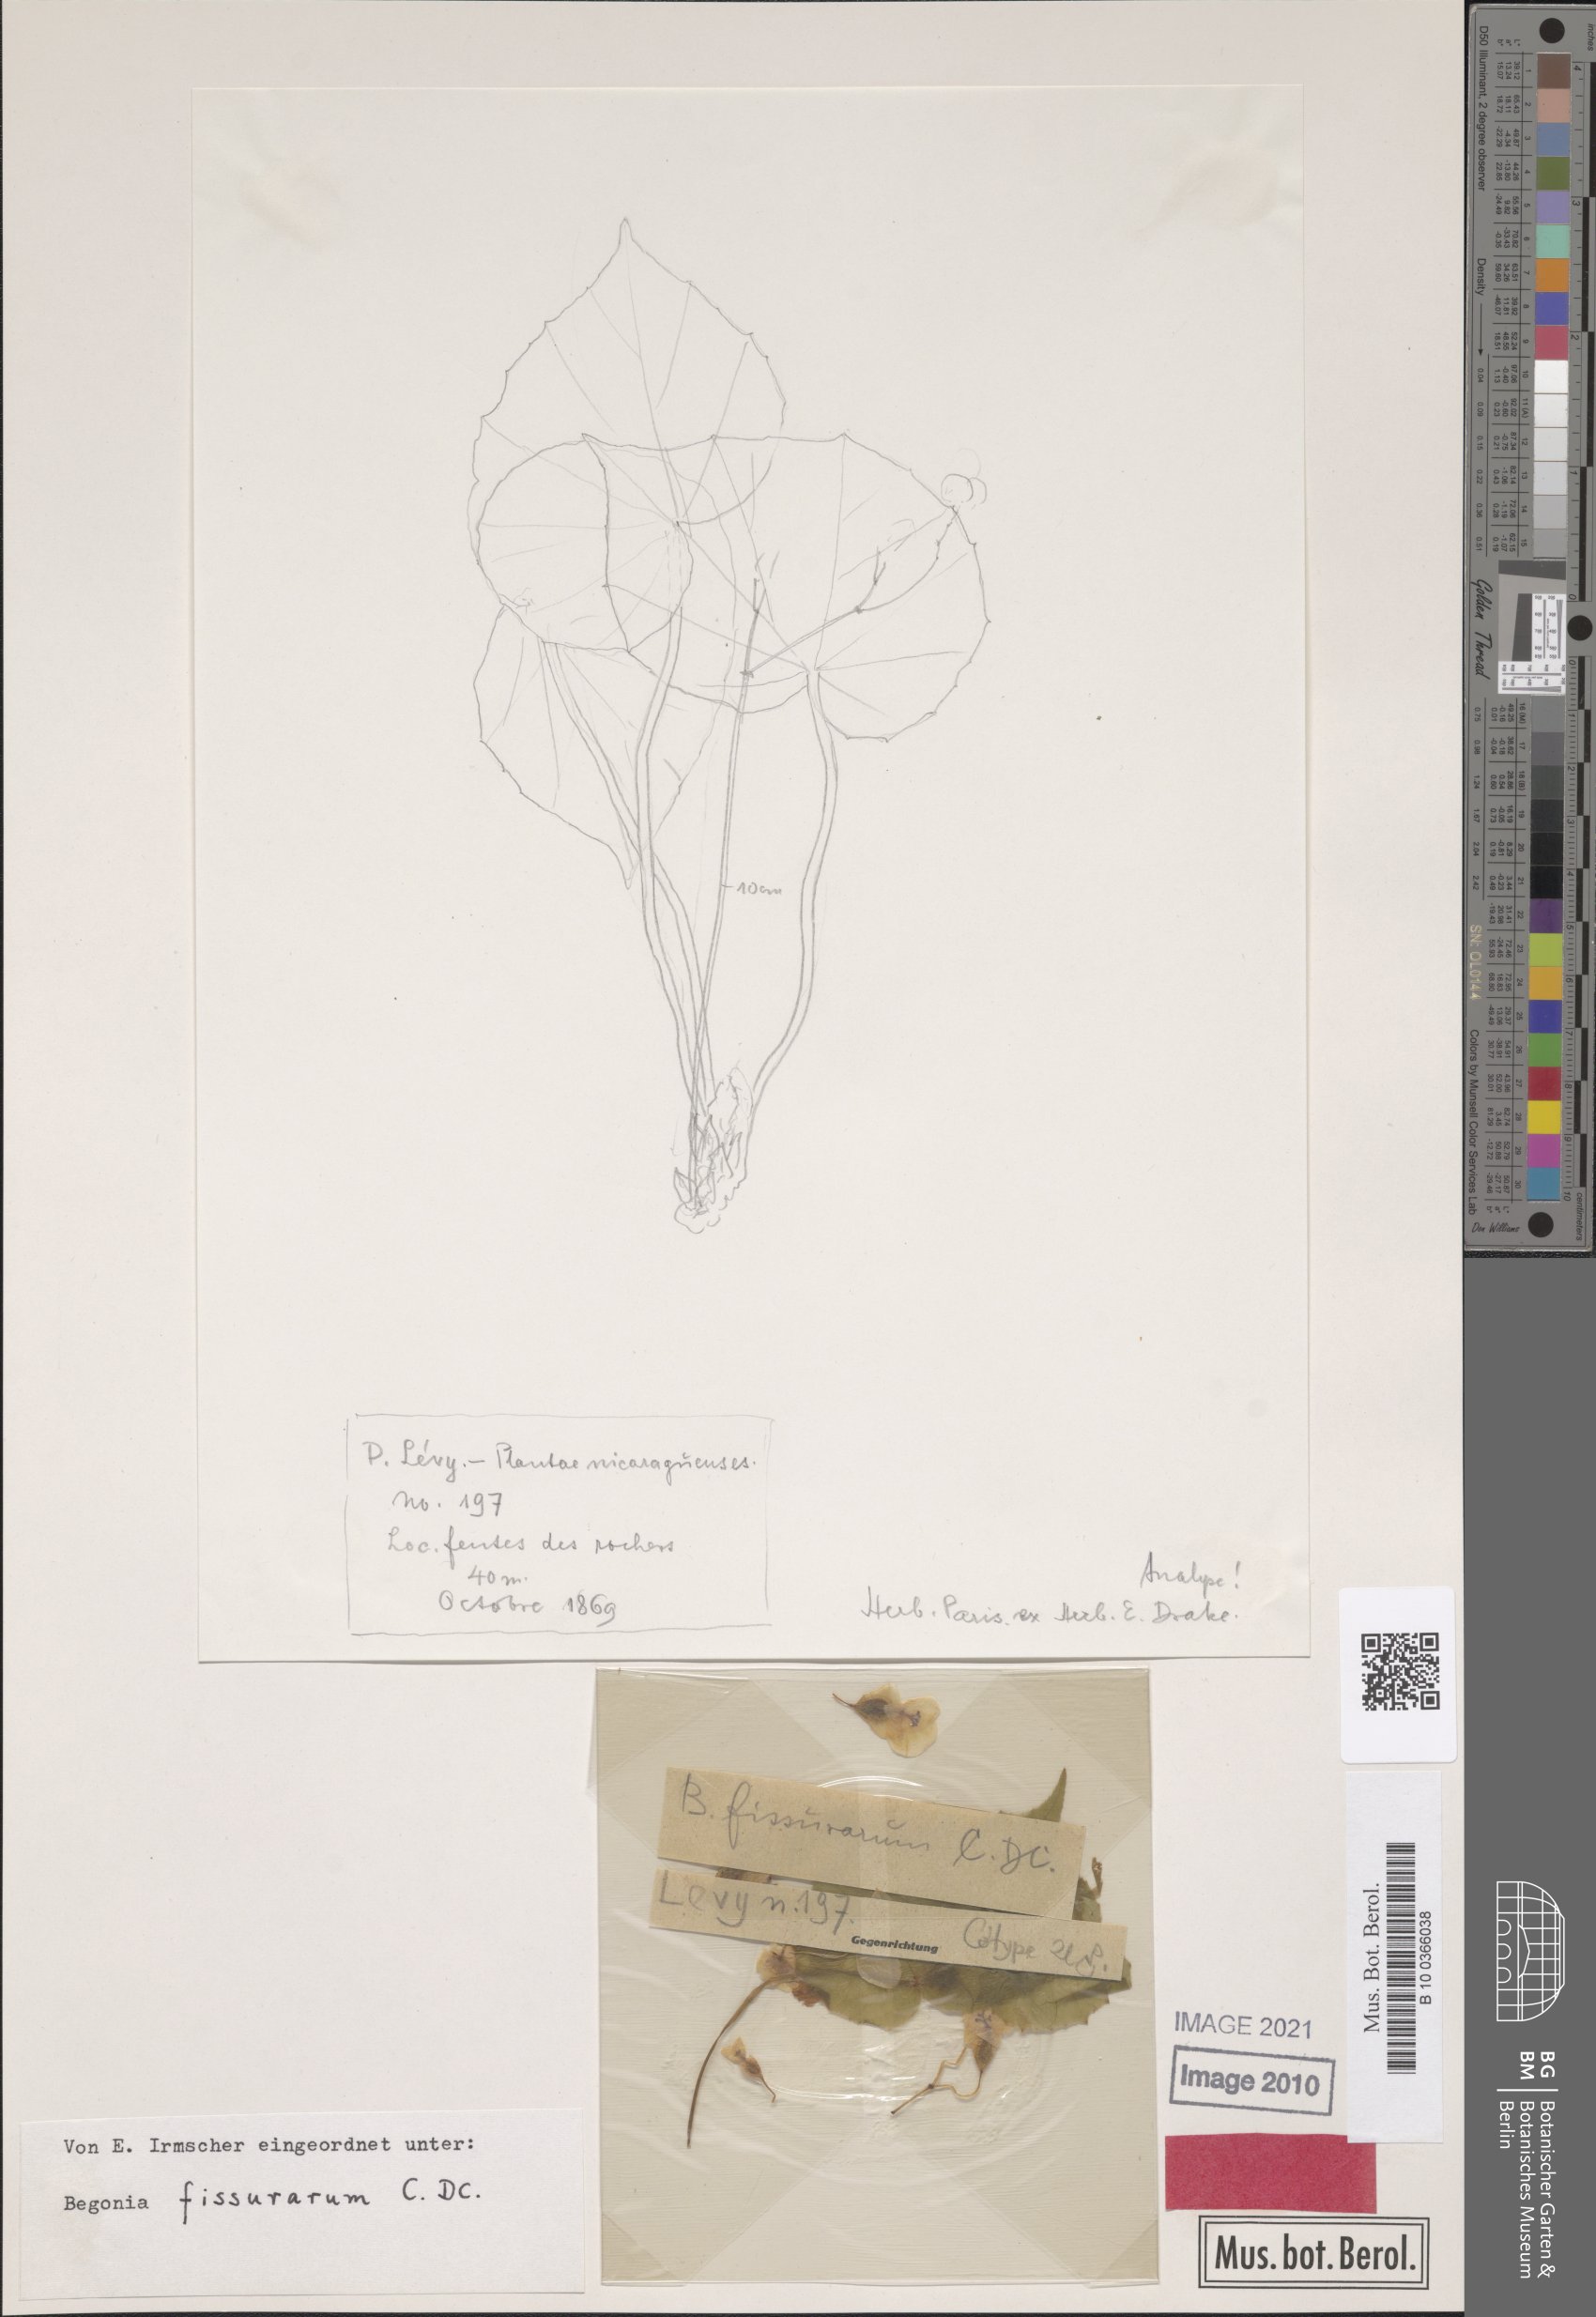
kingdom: Plantae
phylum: Tracheophyta
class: Magnoliopsida
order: Cucurbitales
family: Begoniaceae
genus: Begonia
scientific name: Begonia plebeja
